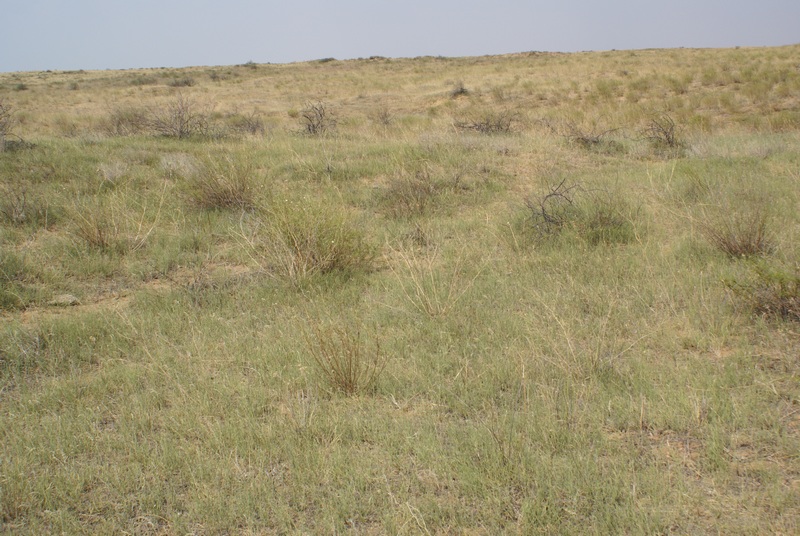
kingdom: Plantae
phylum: Tracheophyta
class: Magnoliopsida
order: Caryophyllales
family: Amaranthaceae
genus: Haloxylon
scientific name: Haloxylon
